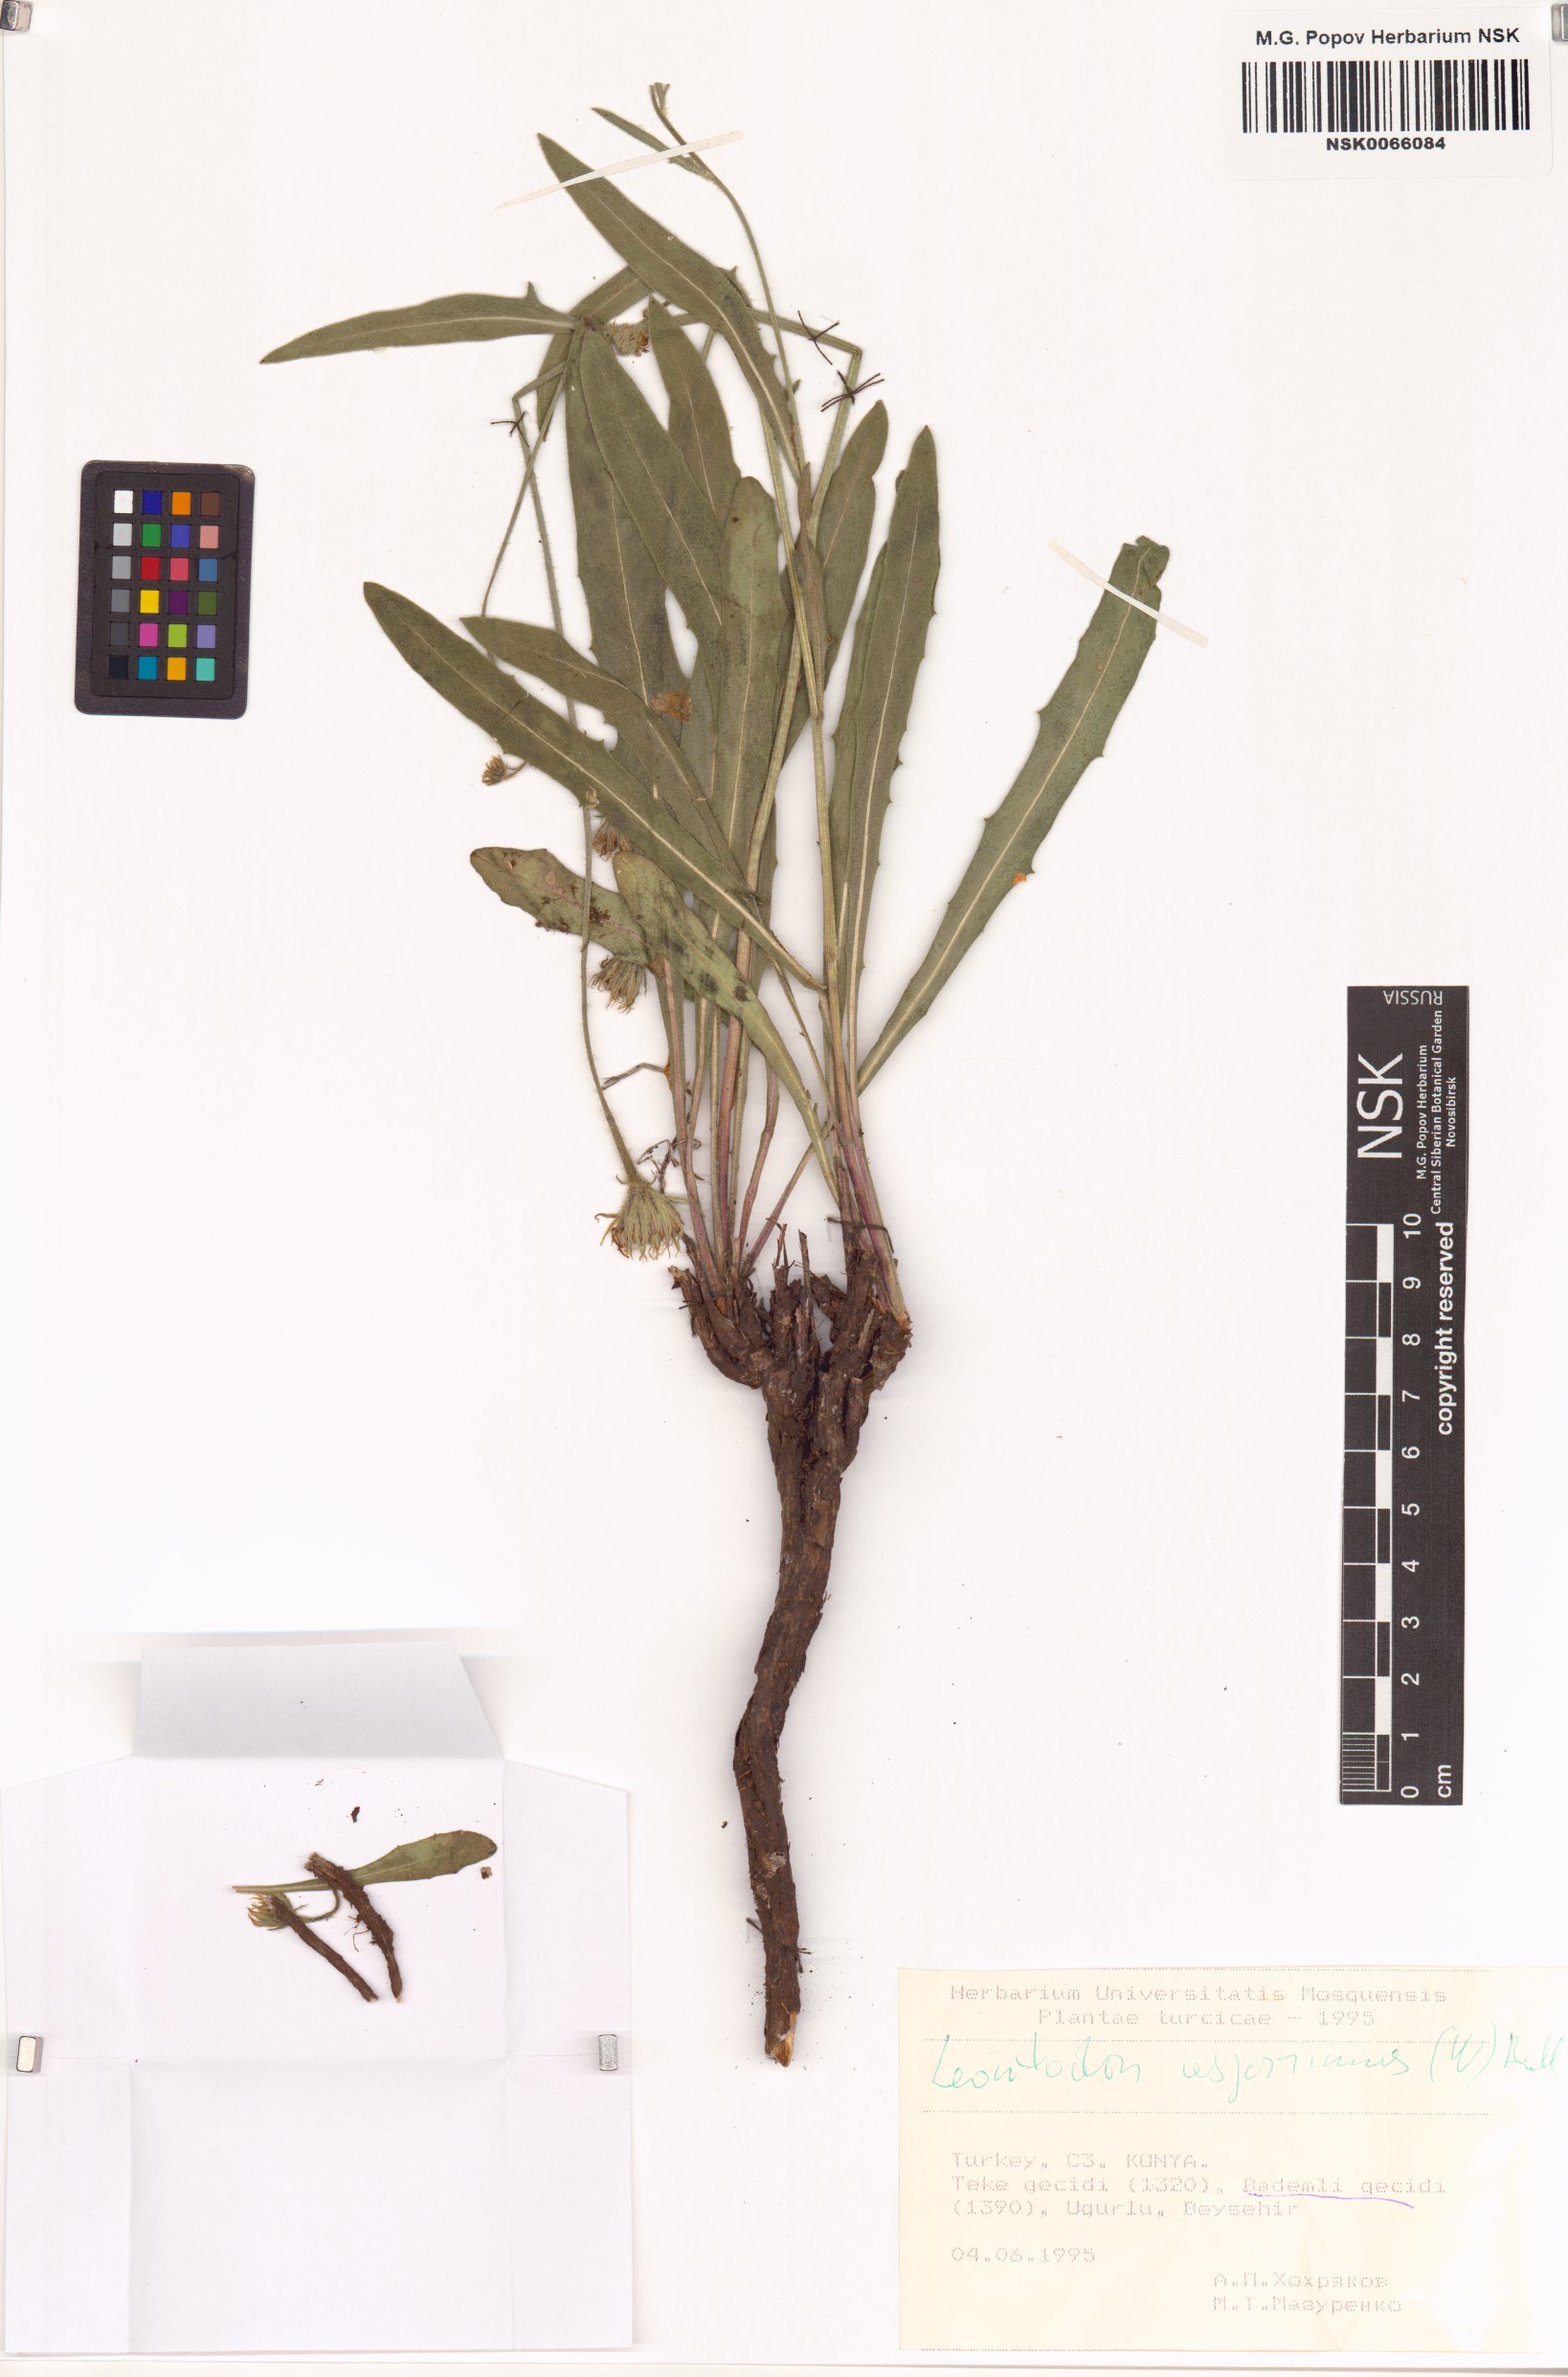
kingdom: Plantae
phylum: Tracheophyta
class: Magnoliopsida
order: Asterales
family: Asteraceae
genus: Leontodon
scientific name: Leontodon asperrimus
